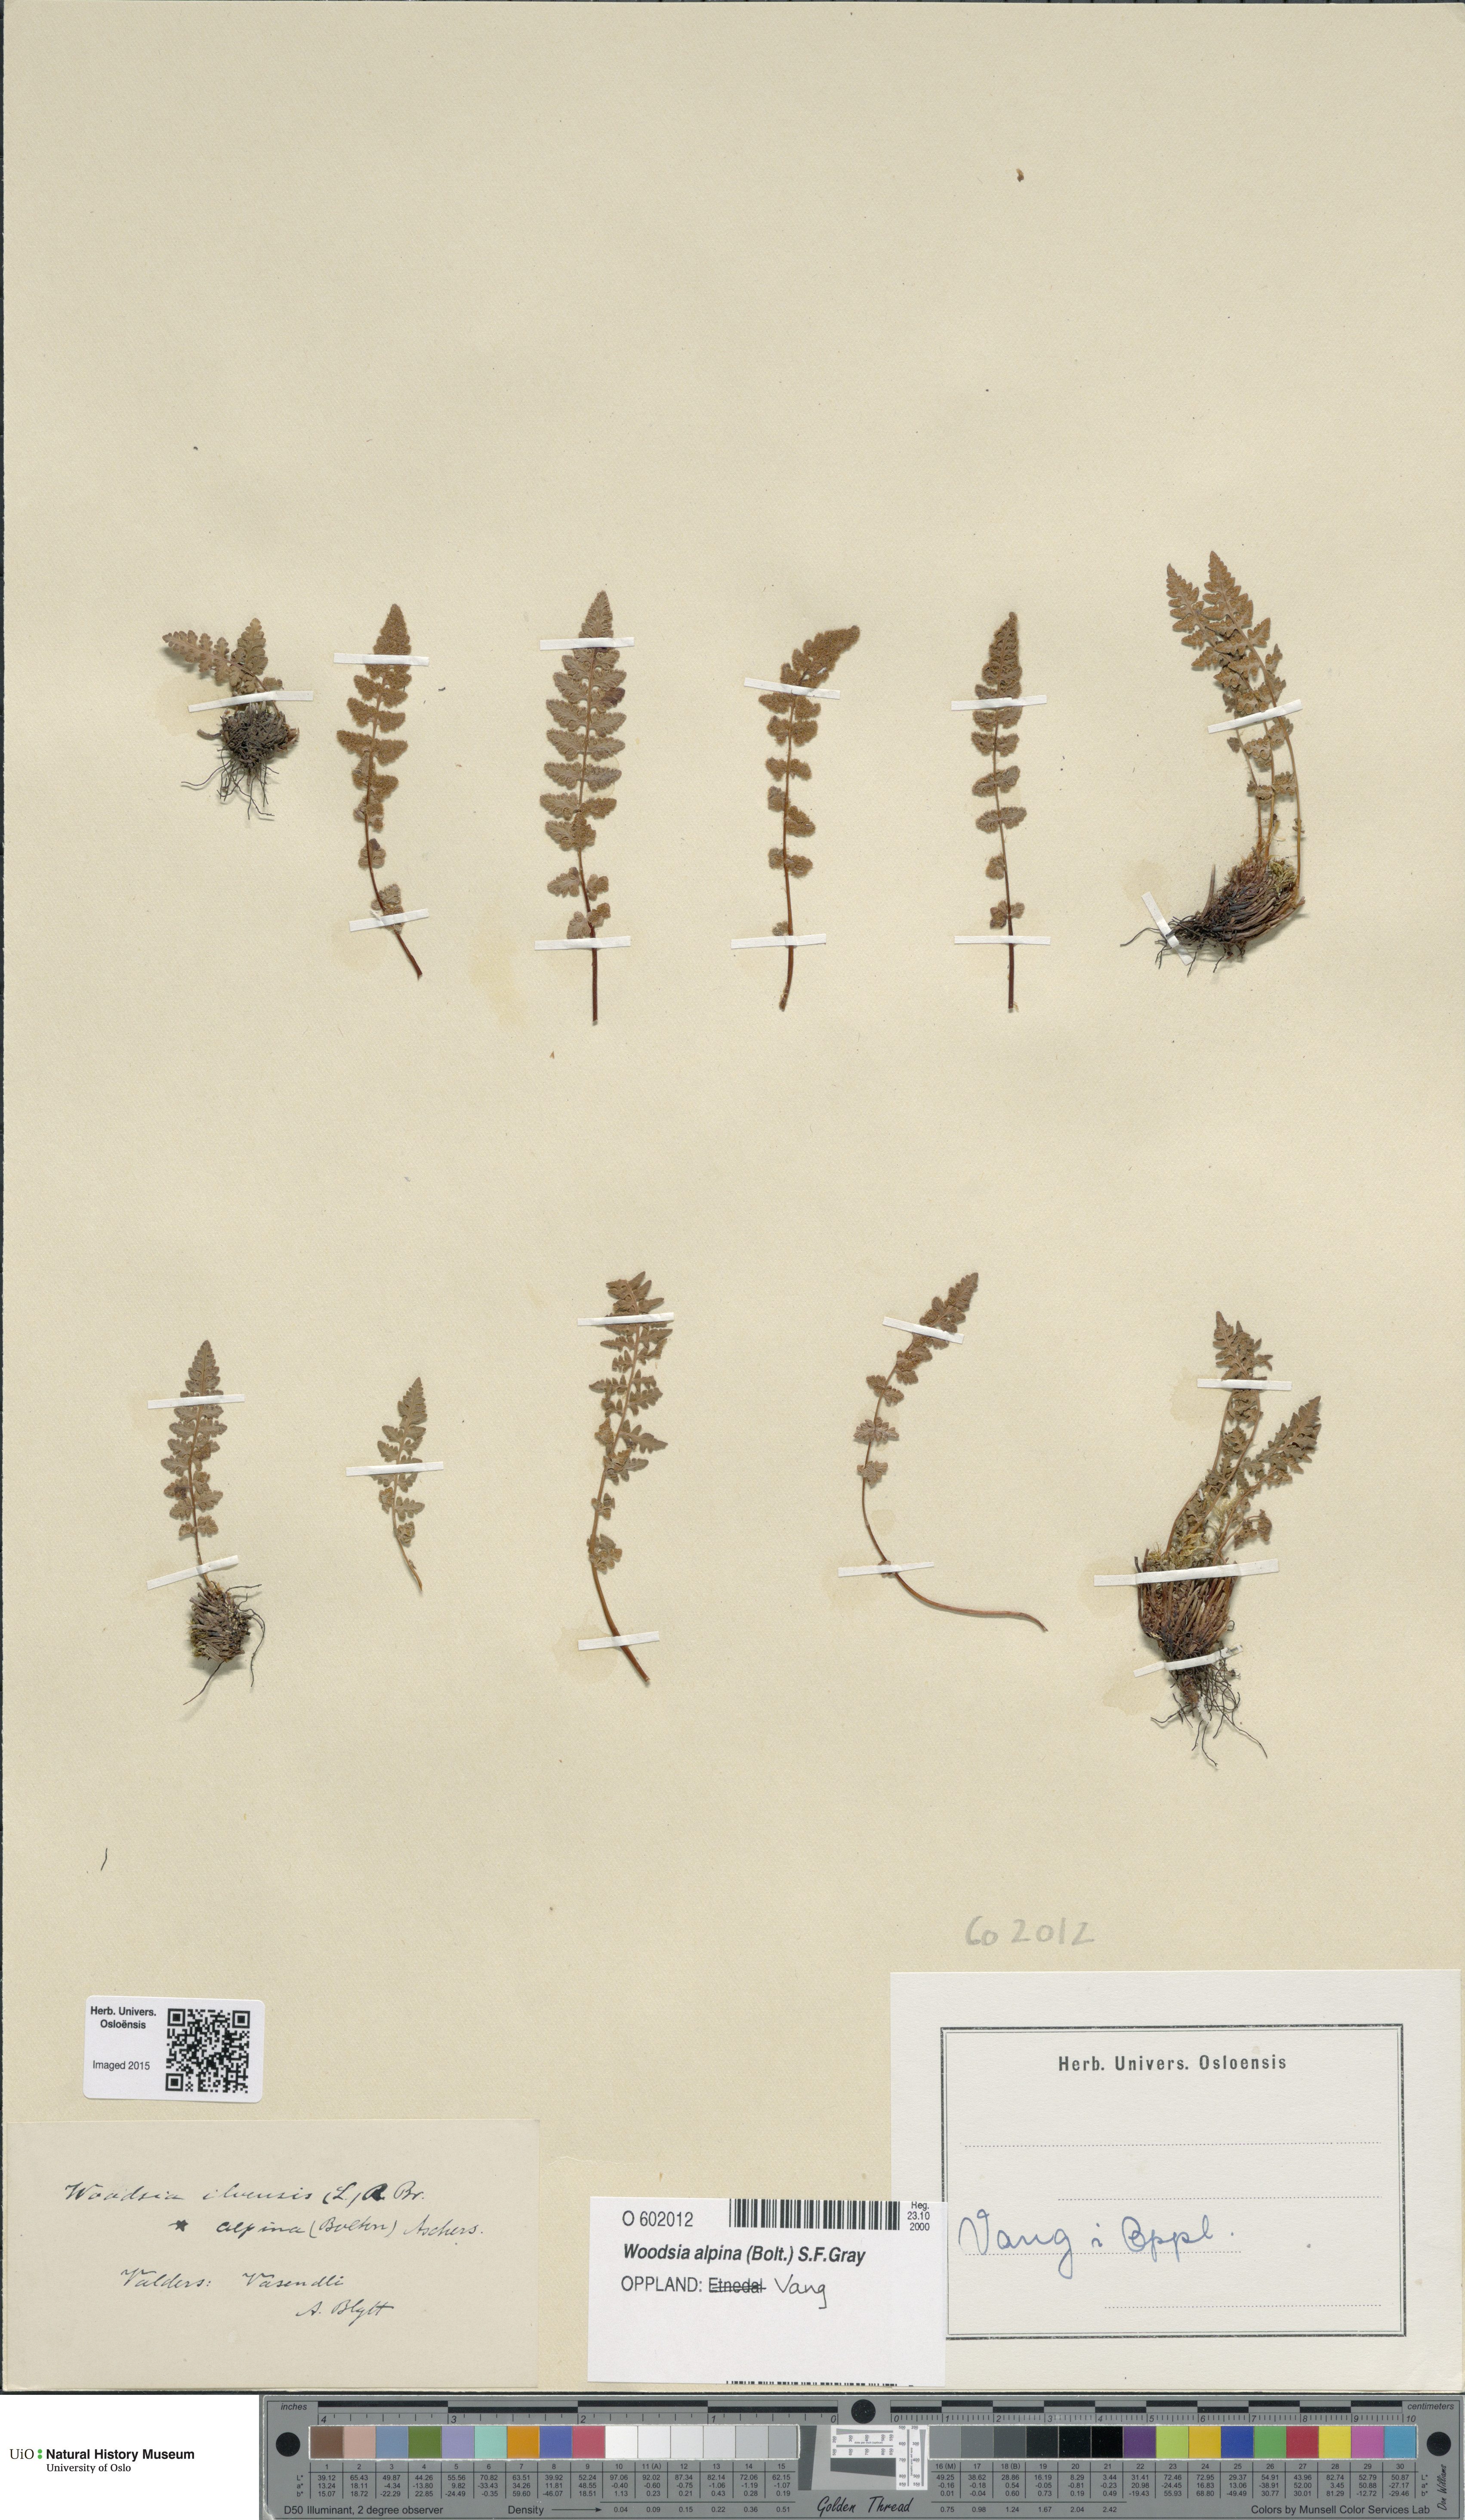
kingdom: Plantae
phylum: Tracheophyta
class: Polypodiopsida
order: Polypodiales
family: Woodsiaceae
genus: Woodsia
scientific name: Woodsia alpina
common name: Alpine woodsia
